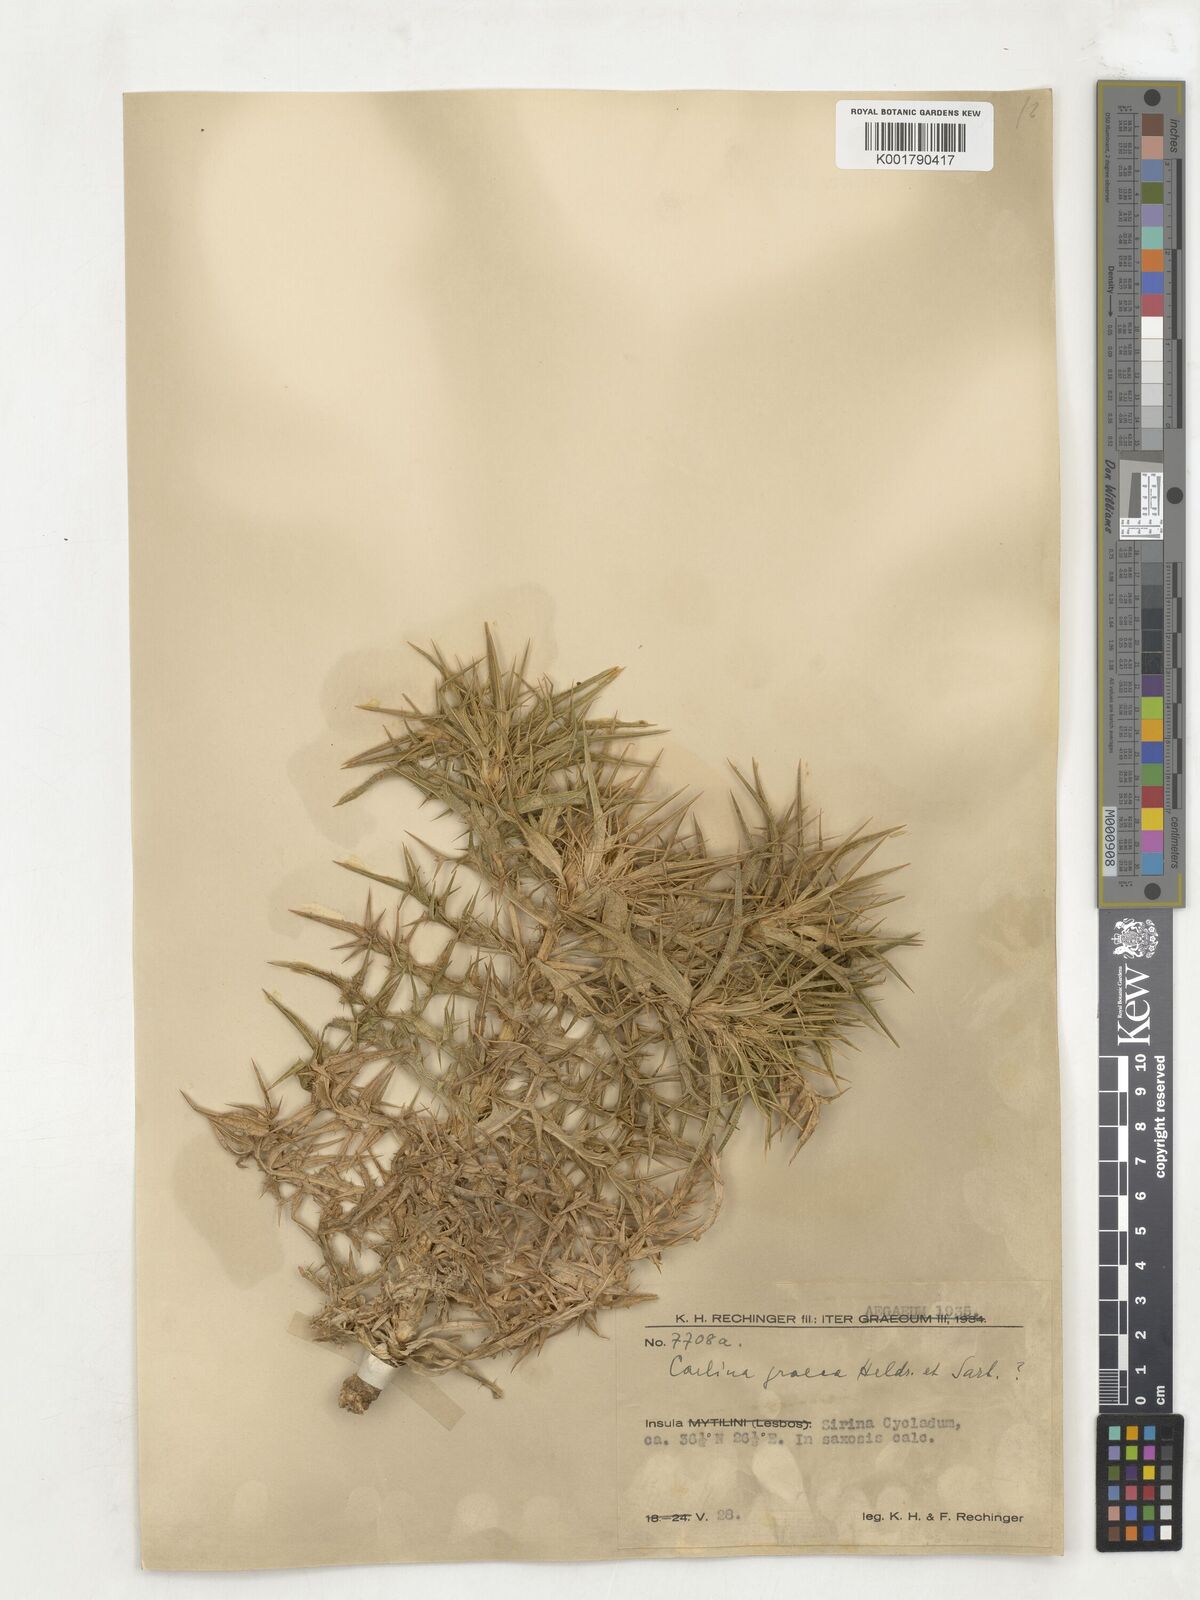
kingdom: Plantae
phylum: Tracheophyta
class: Magnoliopsida
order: Asterales
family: Asteraceae
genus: Carlina
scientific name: Carlina graeca
